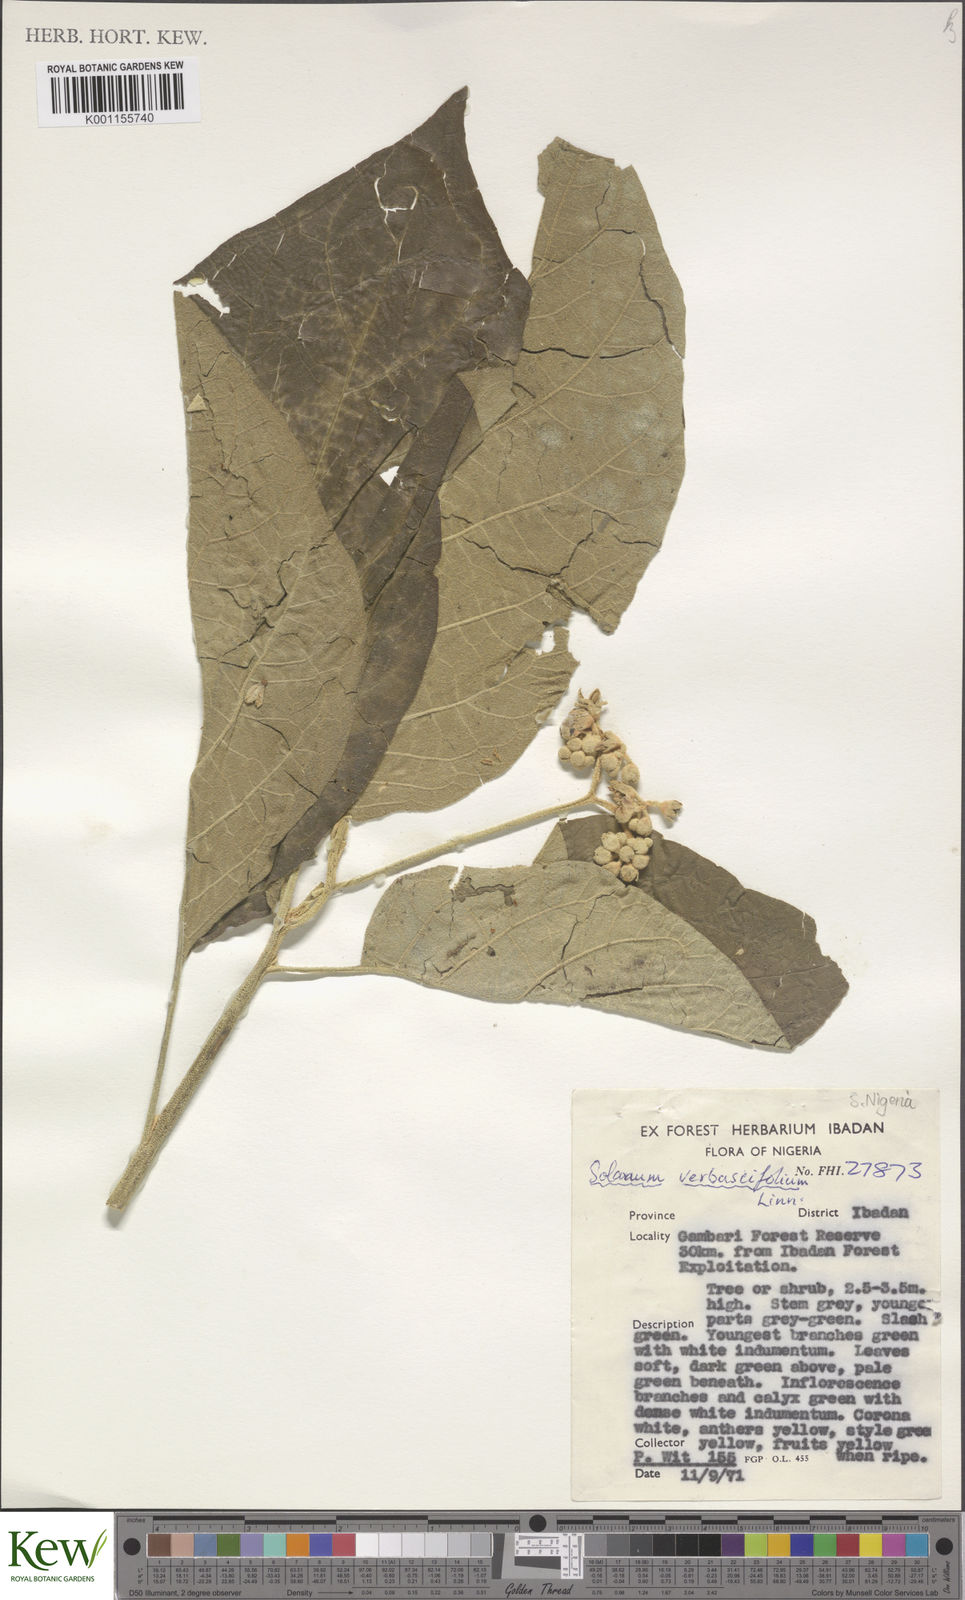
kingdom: Plantae
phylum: Tracheophyta
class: Magnoliopsida
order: Solanales
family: Solanaceae
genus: Solanum
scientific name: Solanum erianthum
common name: Tobacco-tree
